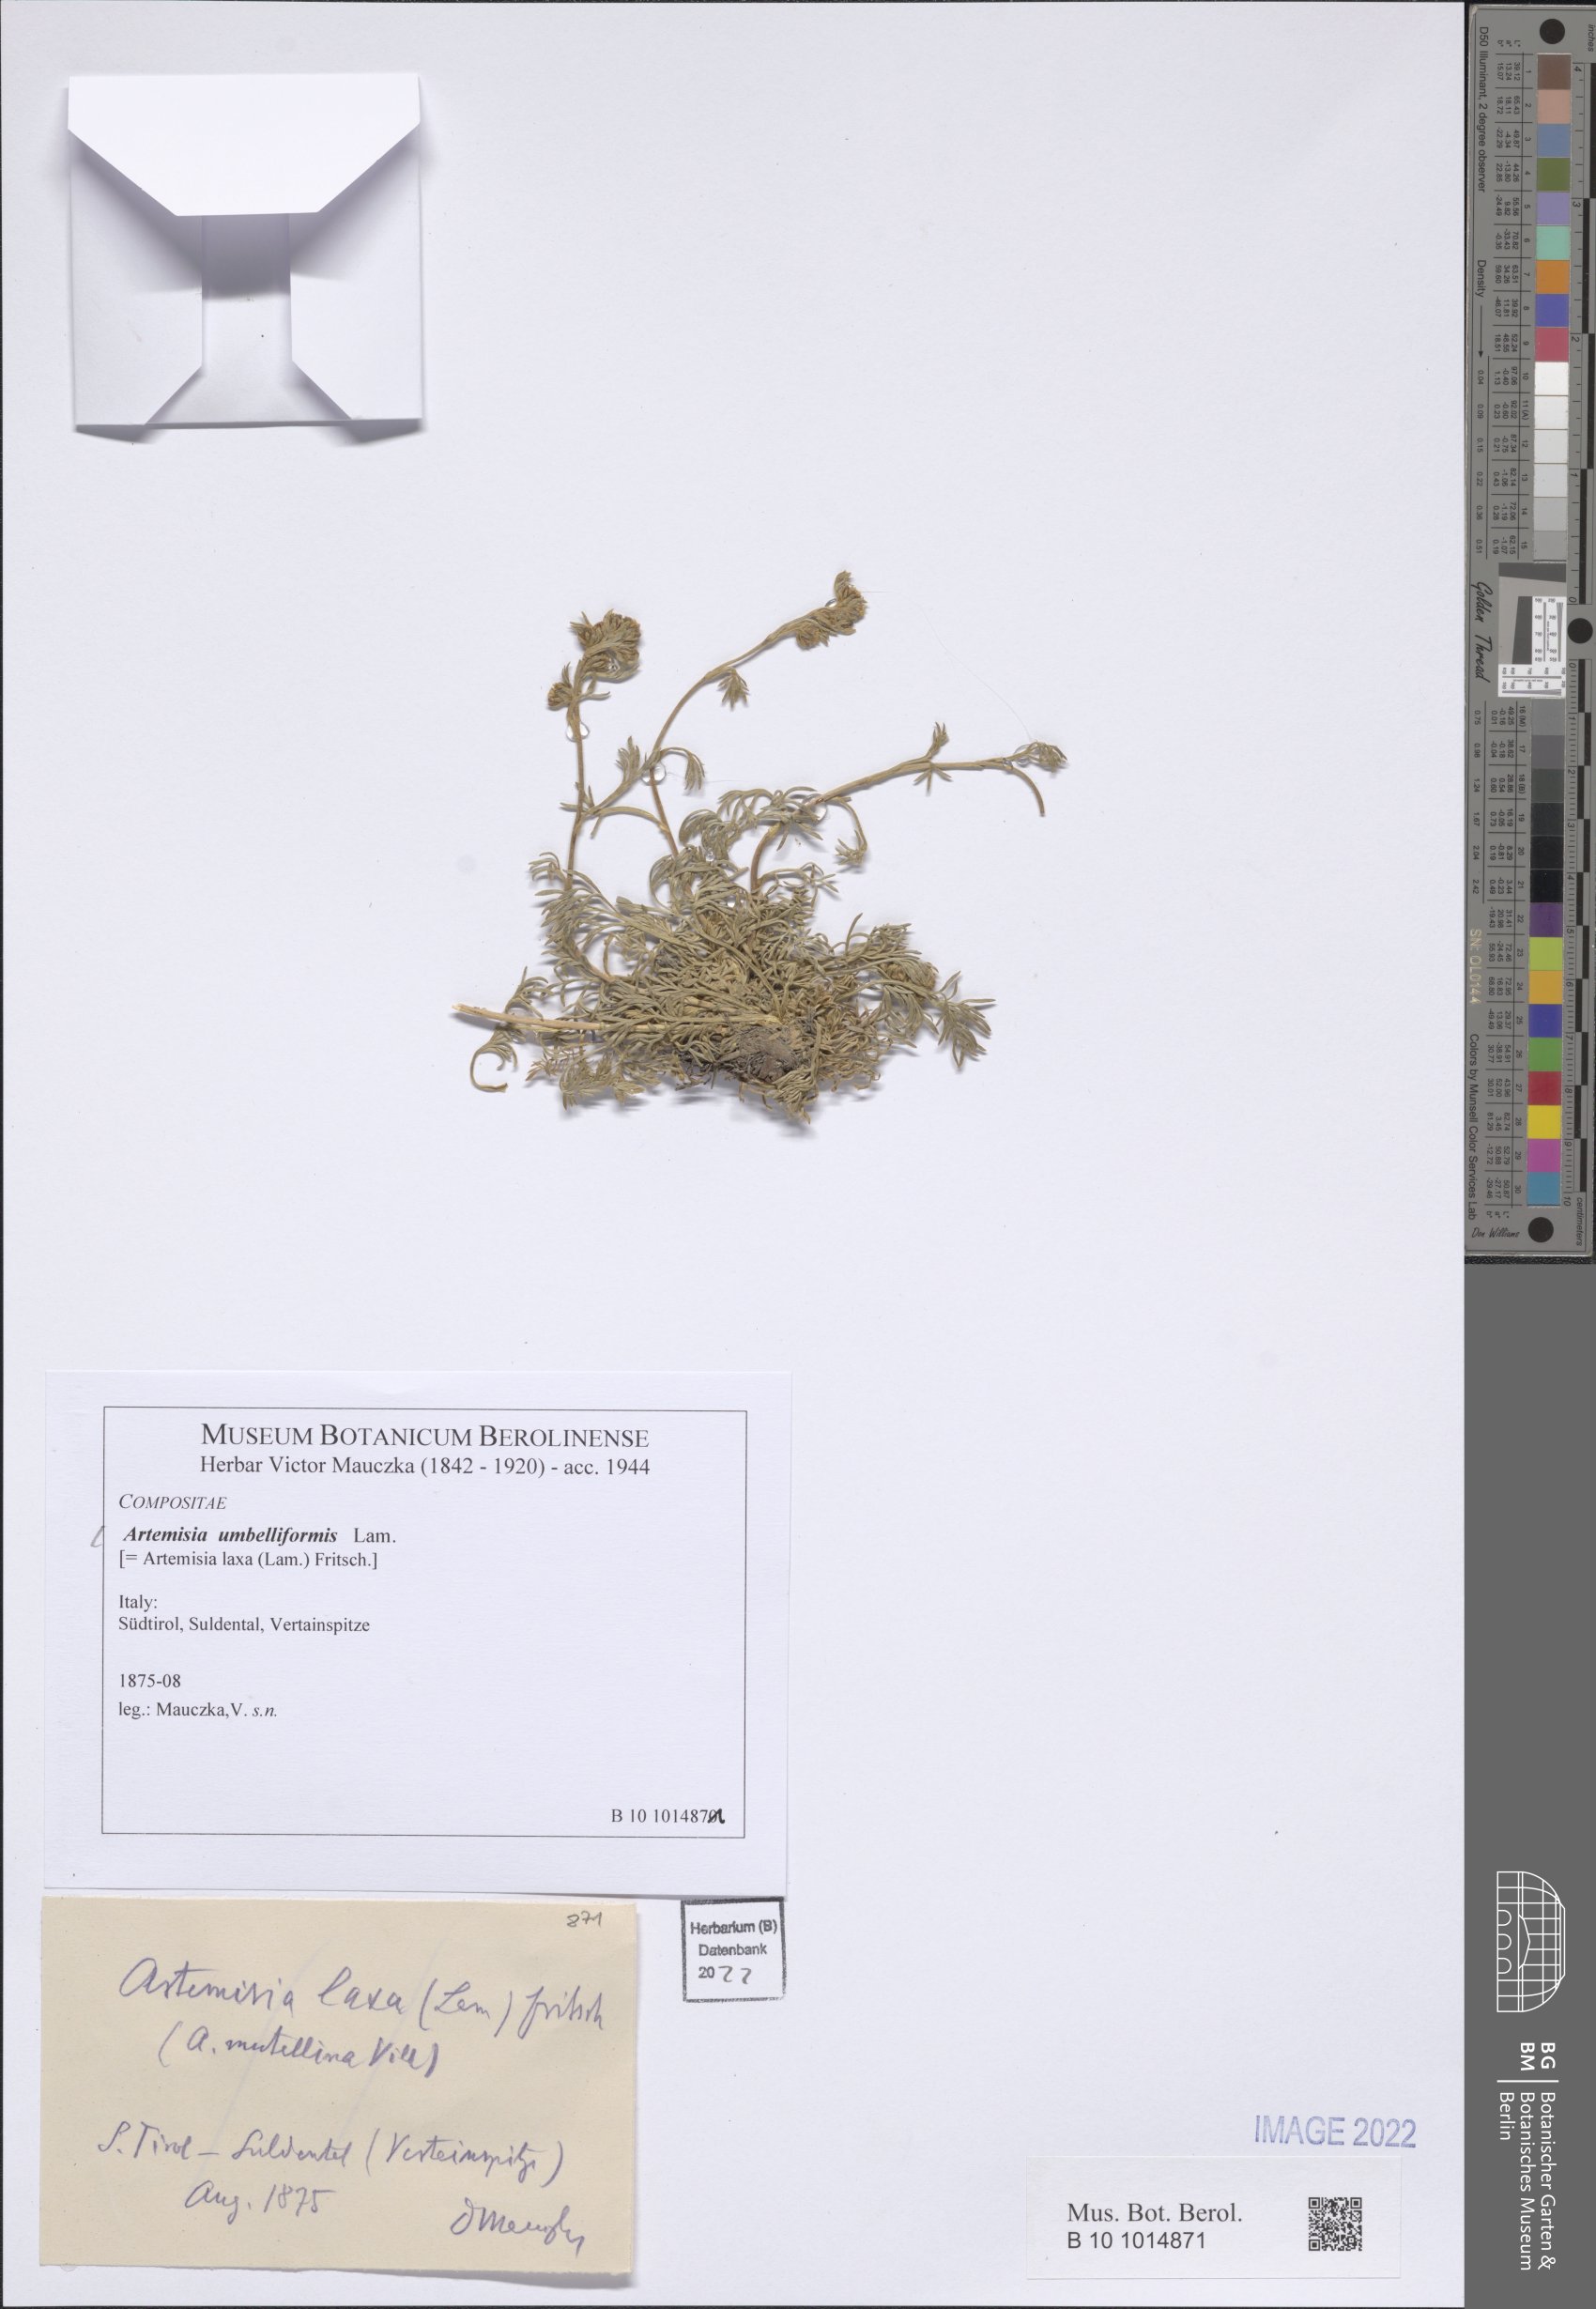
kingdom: Plantae
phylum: Tracheophyta
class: Magnoliopsida
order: Asterales
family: Asteraceae
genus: Artemisia
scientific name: Artemisia mutellina
